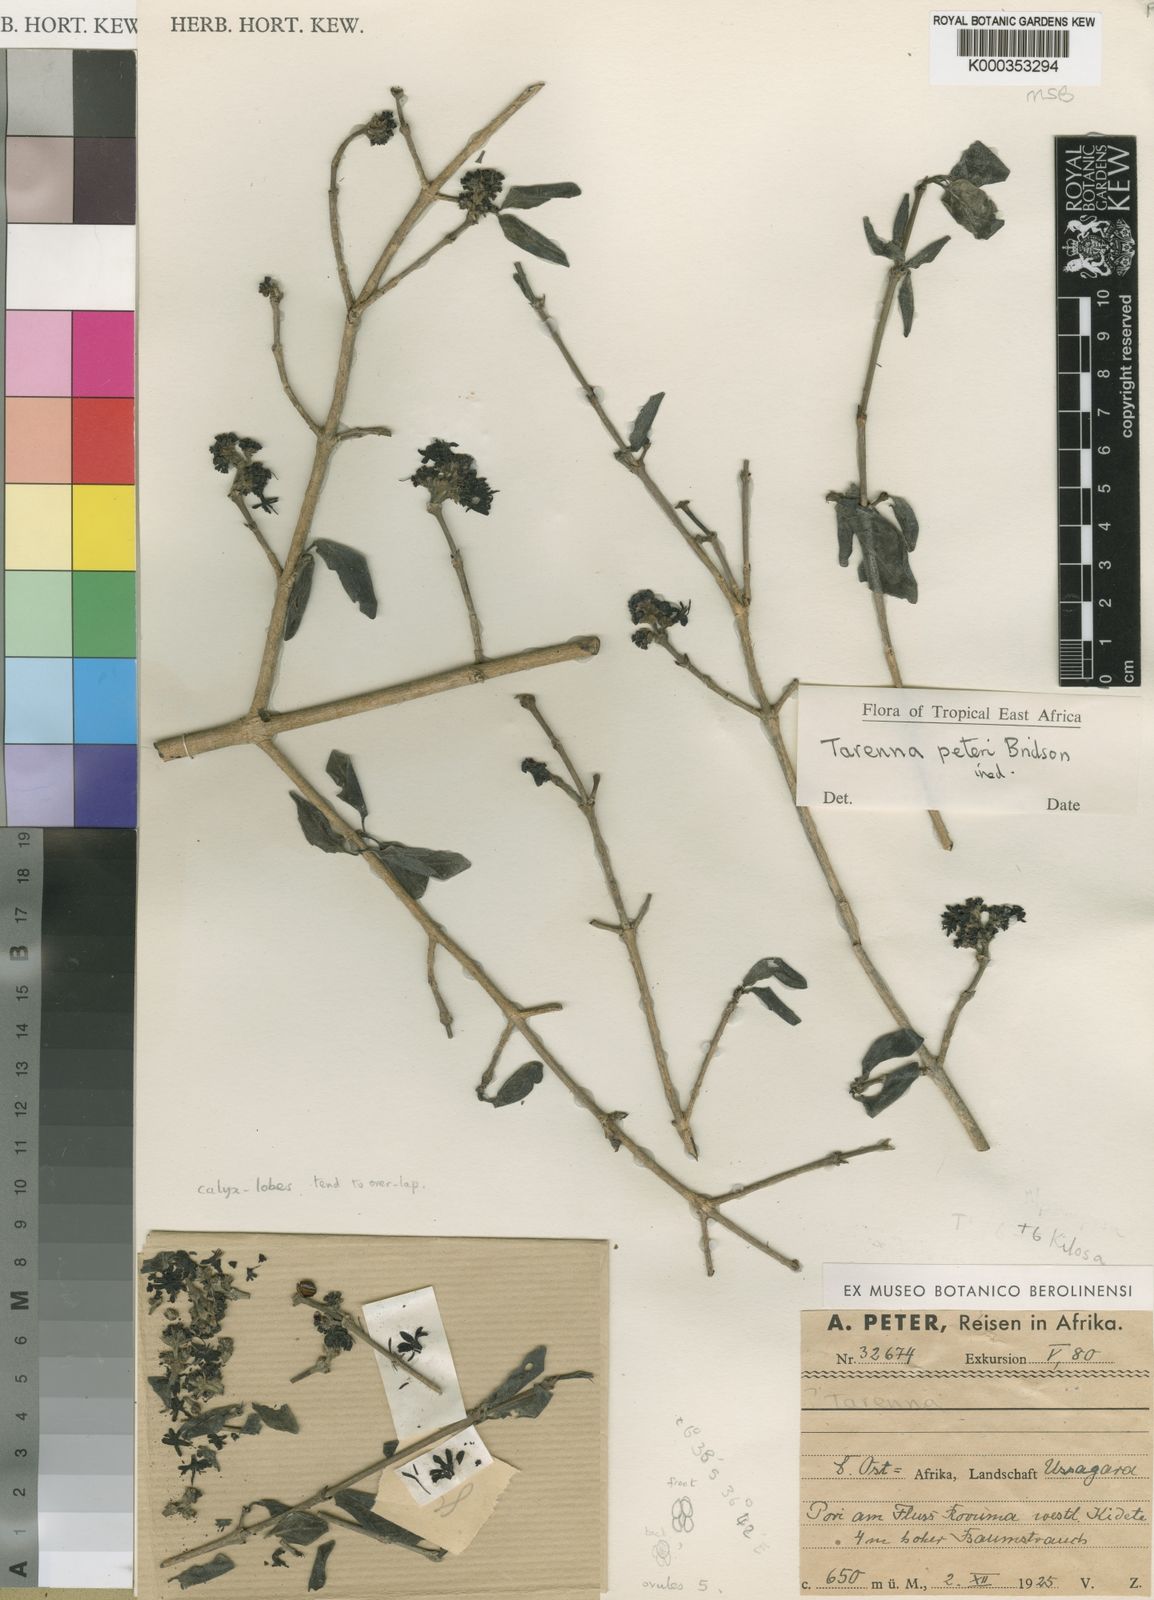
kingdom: Plantae
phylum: Tracheophyta
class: Magnoliopsida
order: Gentianales
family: Rubiaceae
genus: Coptosperma
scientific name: Coptosperma peteri
